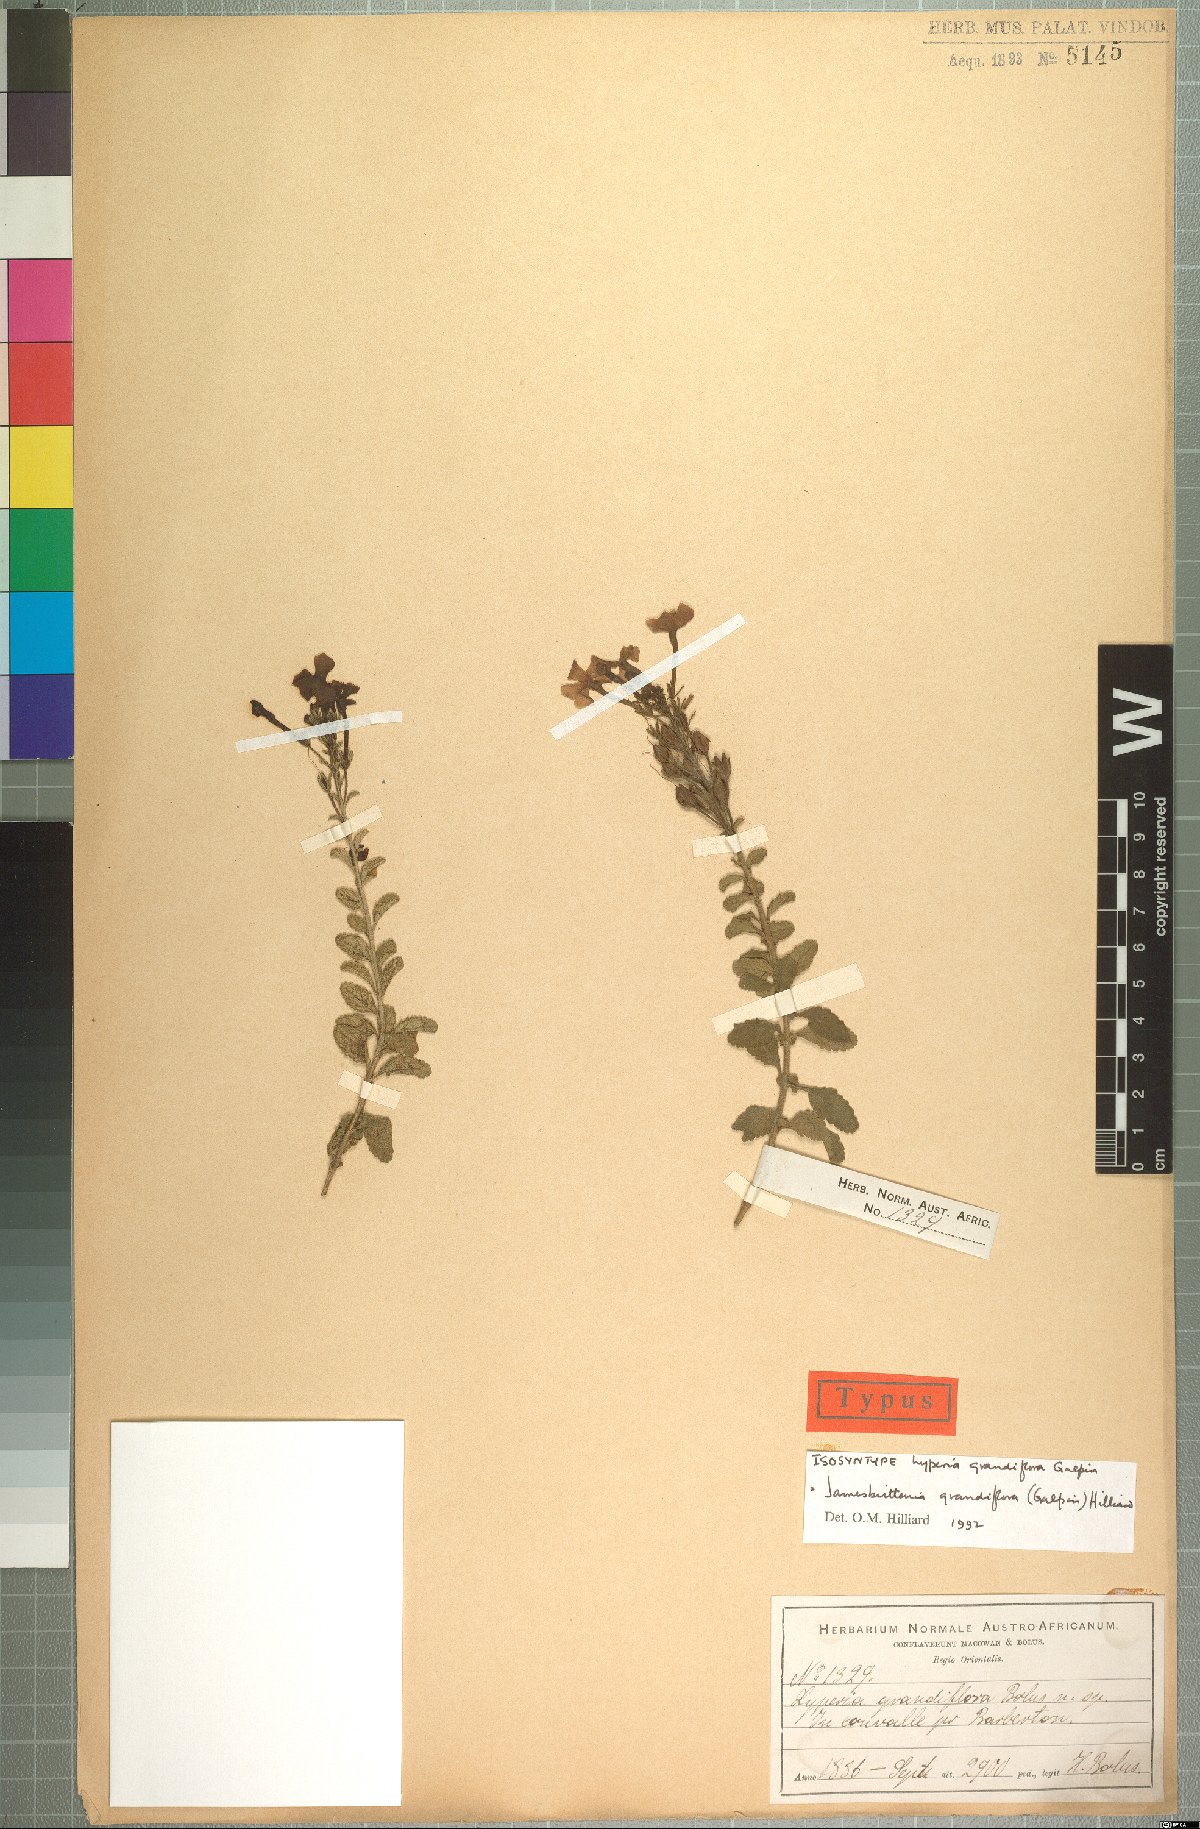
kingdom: Plantae
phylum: Tracheophyta
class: Magnoliopsida
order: Lamiales
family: Scrophulariaceae
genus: Jamesbrittenia
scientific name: Jamesbrittenia grandiflora
